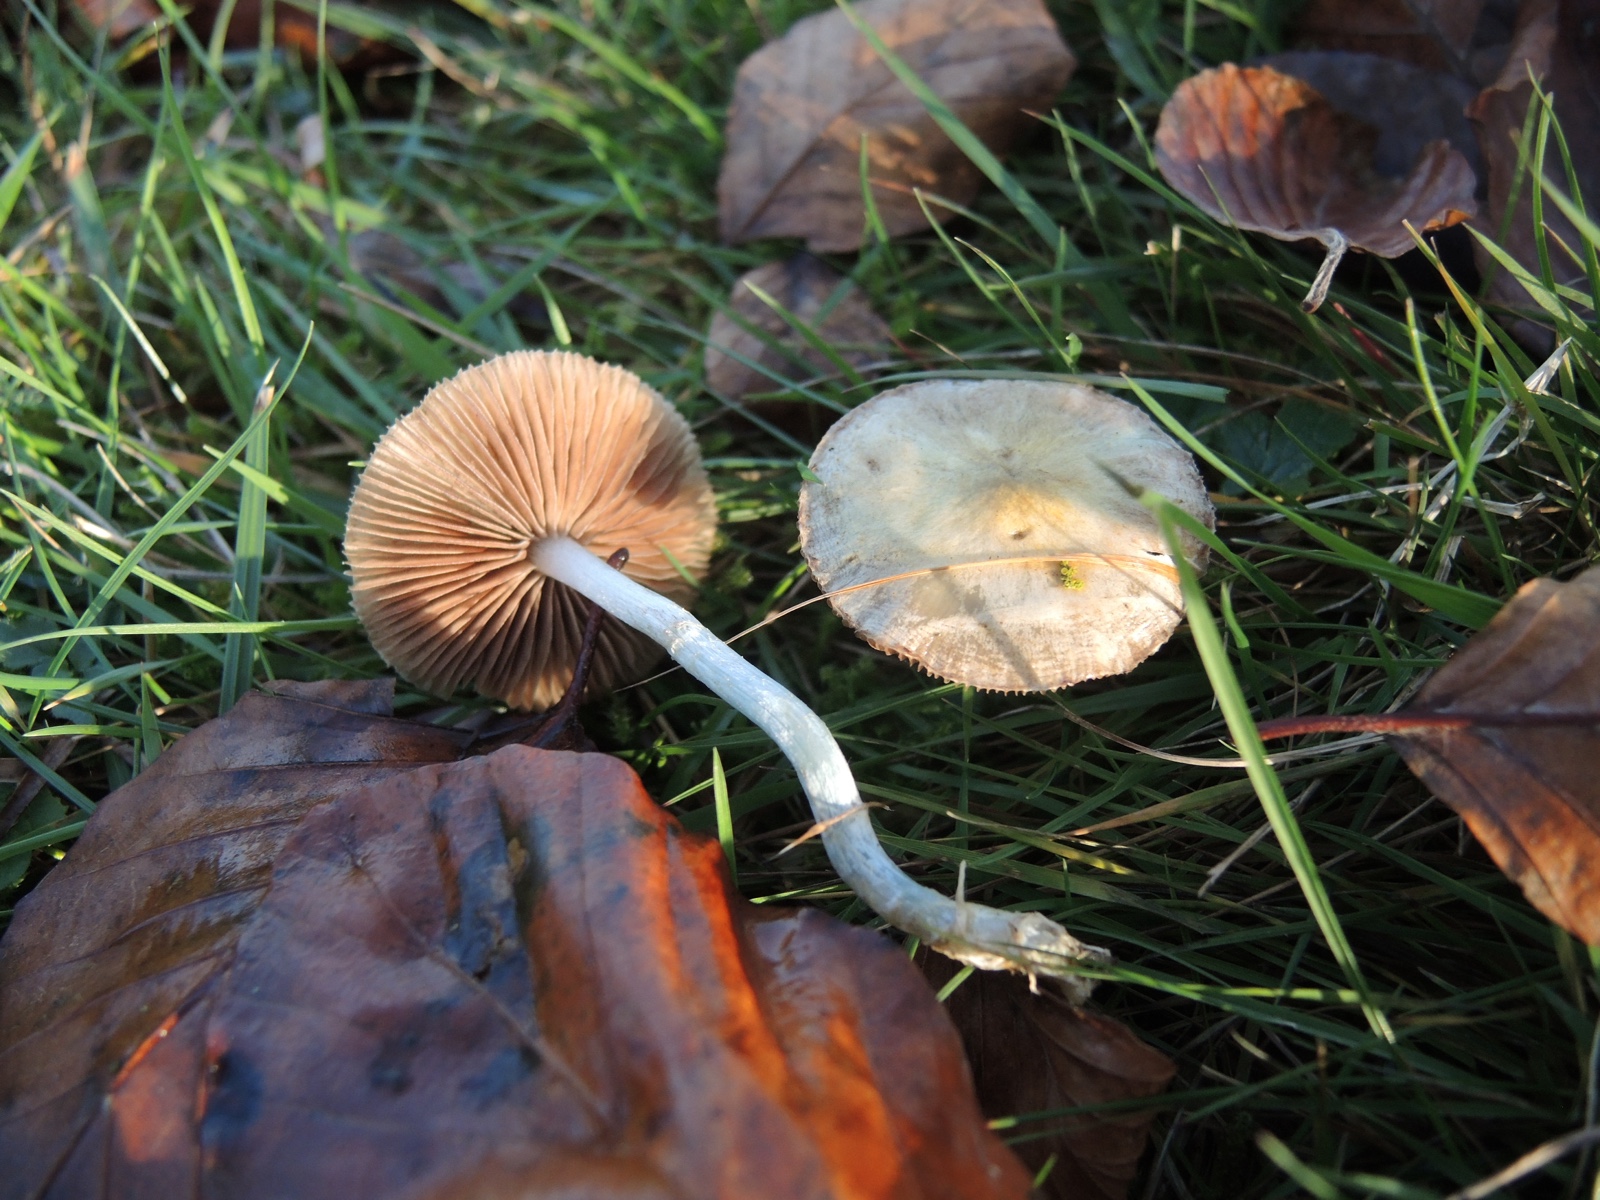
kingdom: Fungi
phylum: Basidiomycota
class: Agaricomycetes
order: Agaricales
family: Strophariaceae
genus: Stropharia
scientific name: Stropharia pseudocyanea
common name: blegblå bredblad
